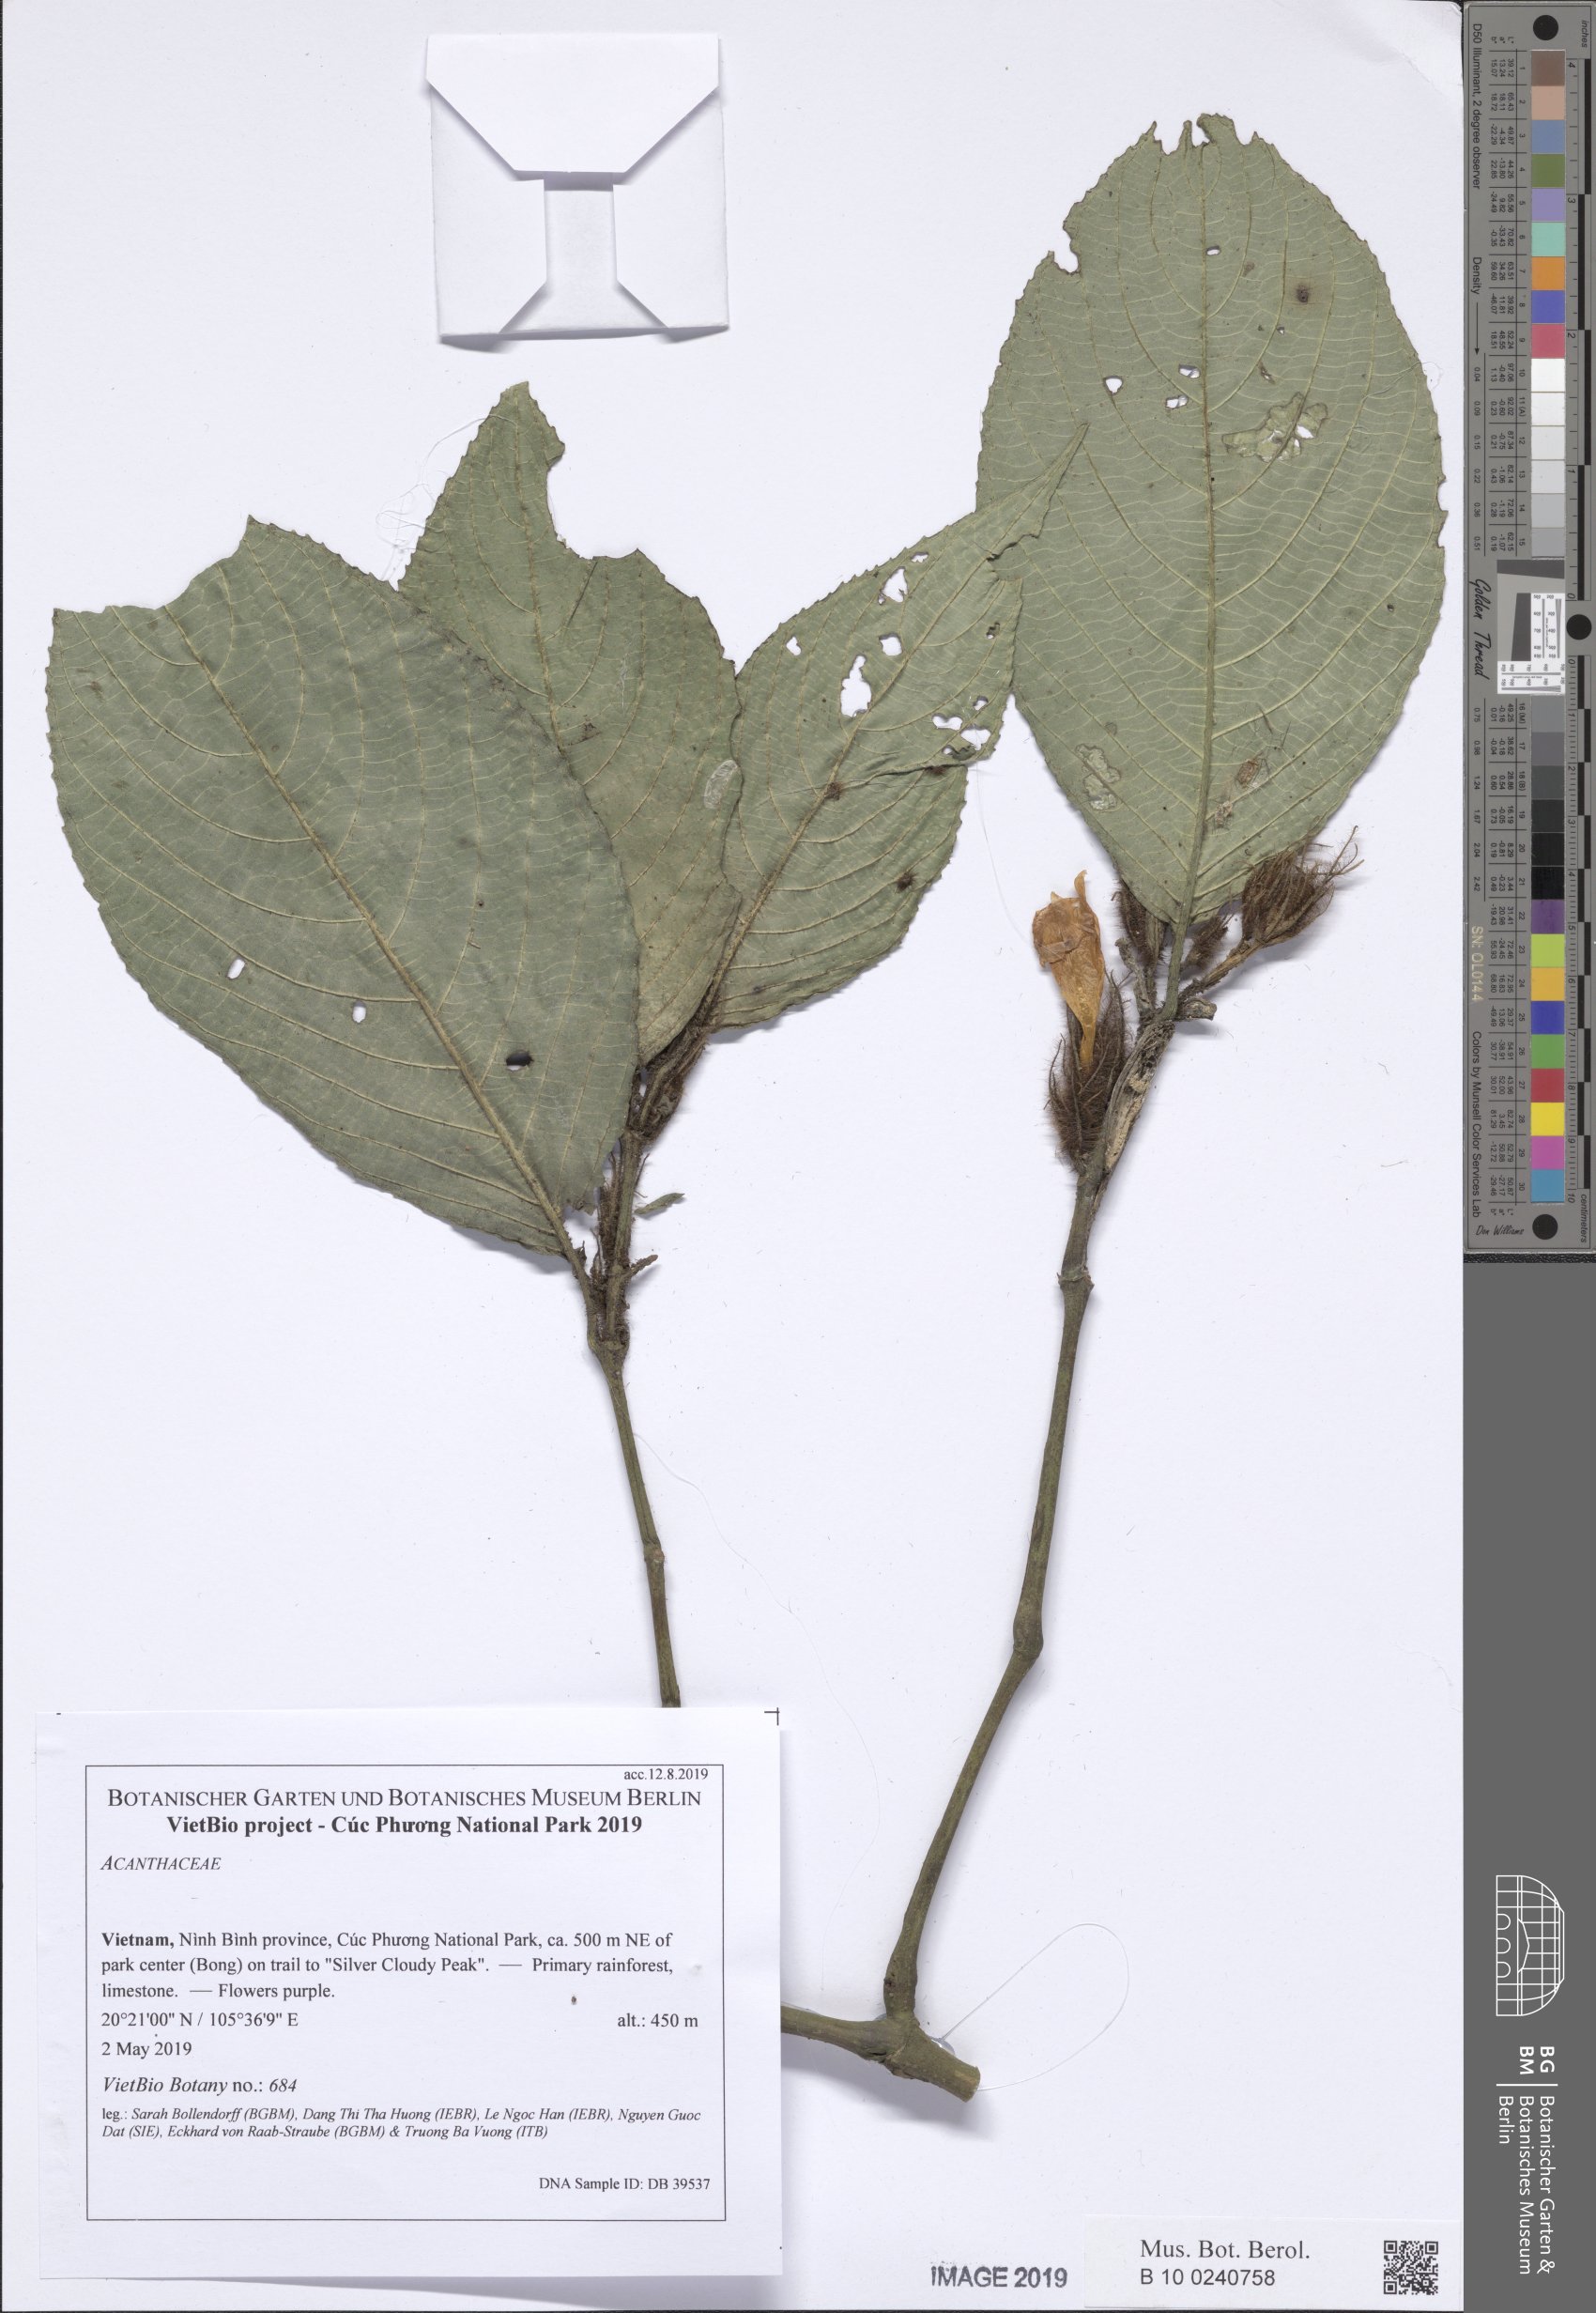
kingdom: Plantae
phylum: Tracheophyta
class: Magnoliopsida
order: Lamiales
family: Acanthaceae
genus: Strobilanthes
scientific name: Strobilanthes
